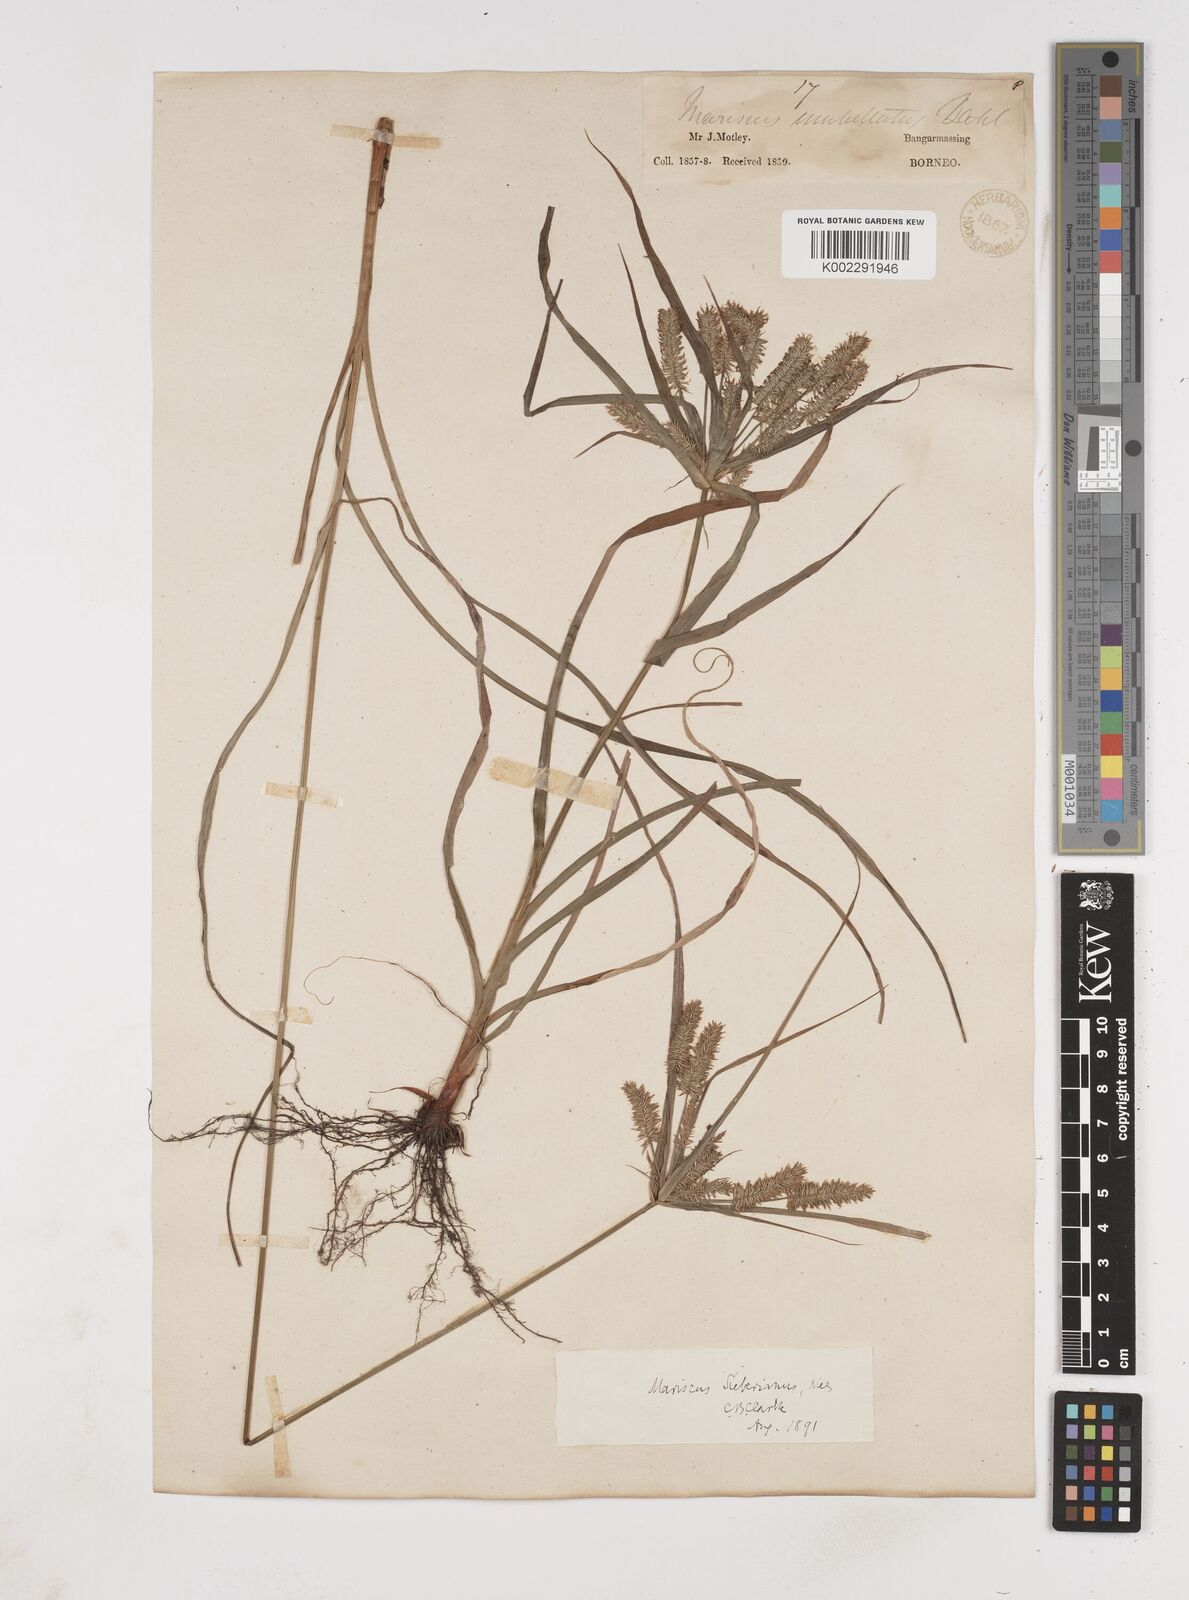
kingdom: Plantae
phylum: Tracheophyta
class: Liliopsida
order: Poales
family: Cyperaceae
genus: Cyperus
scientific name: Cyperus cyperoides
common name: Pacific island flat sedge
